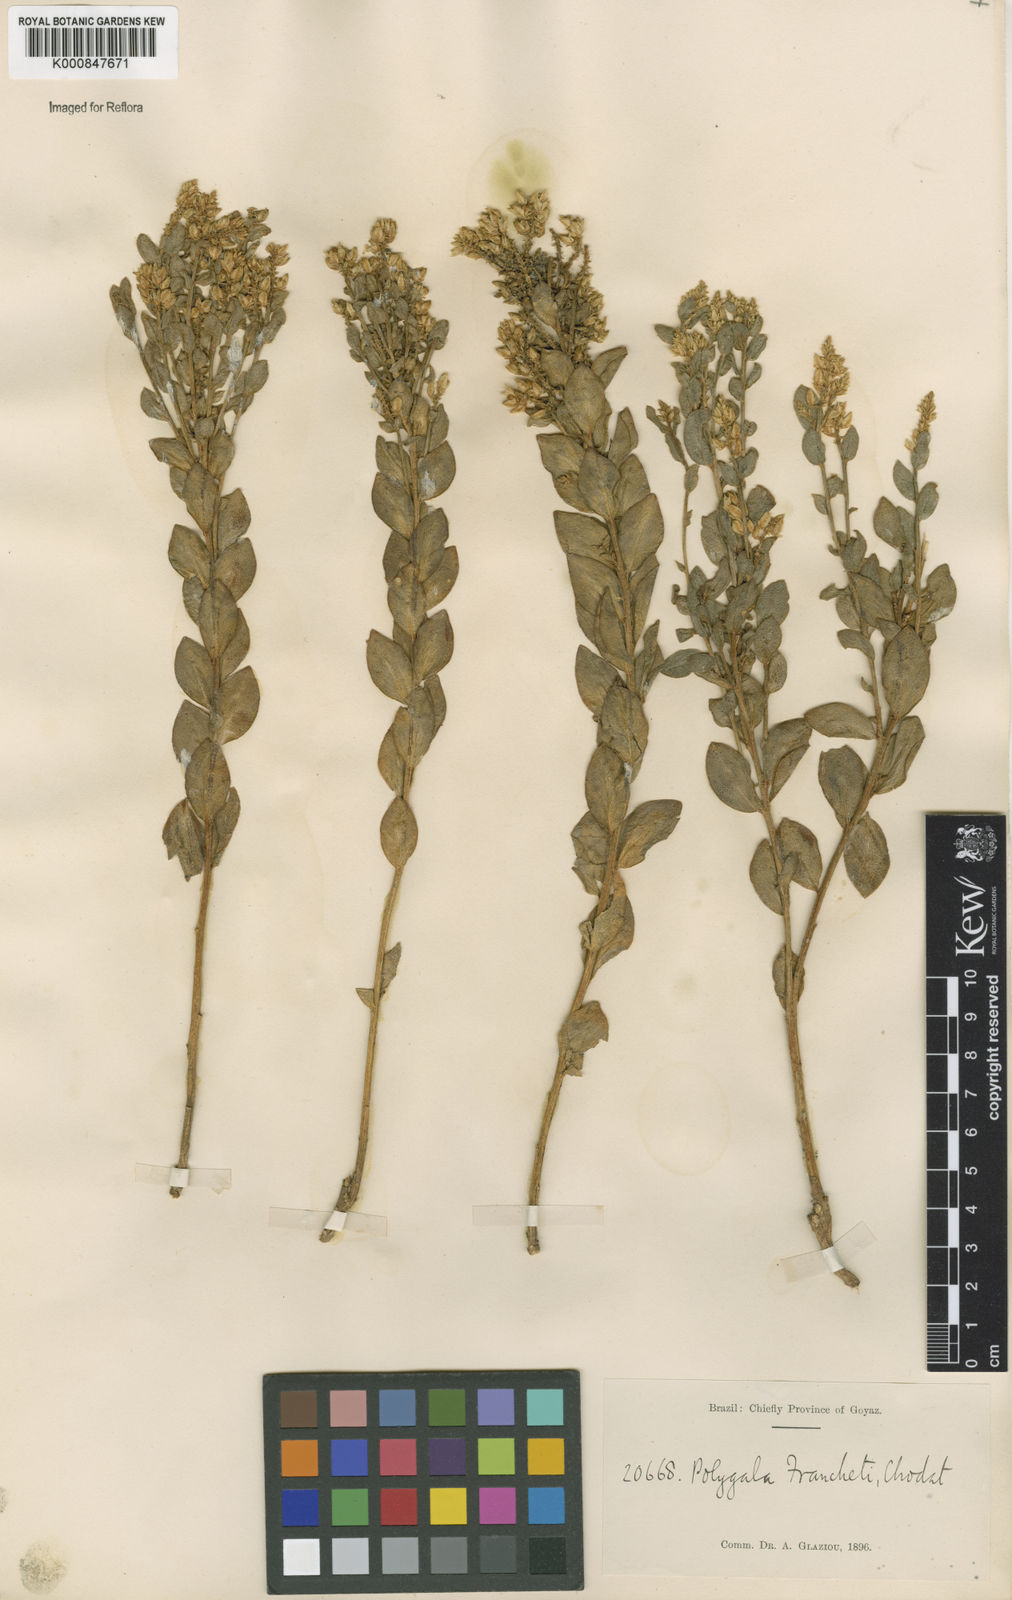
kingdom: Plantae
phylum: Tracheophyta
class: Magnoliopsida
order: Fabales
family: Polygalaceae
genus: Polygala
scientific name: Polygala franchetii
